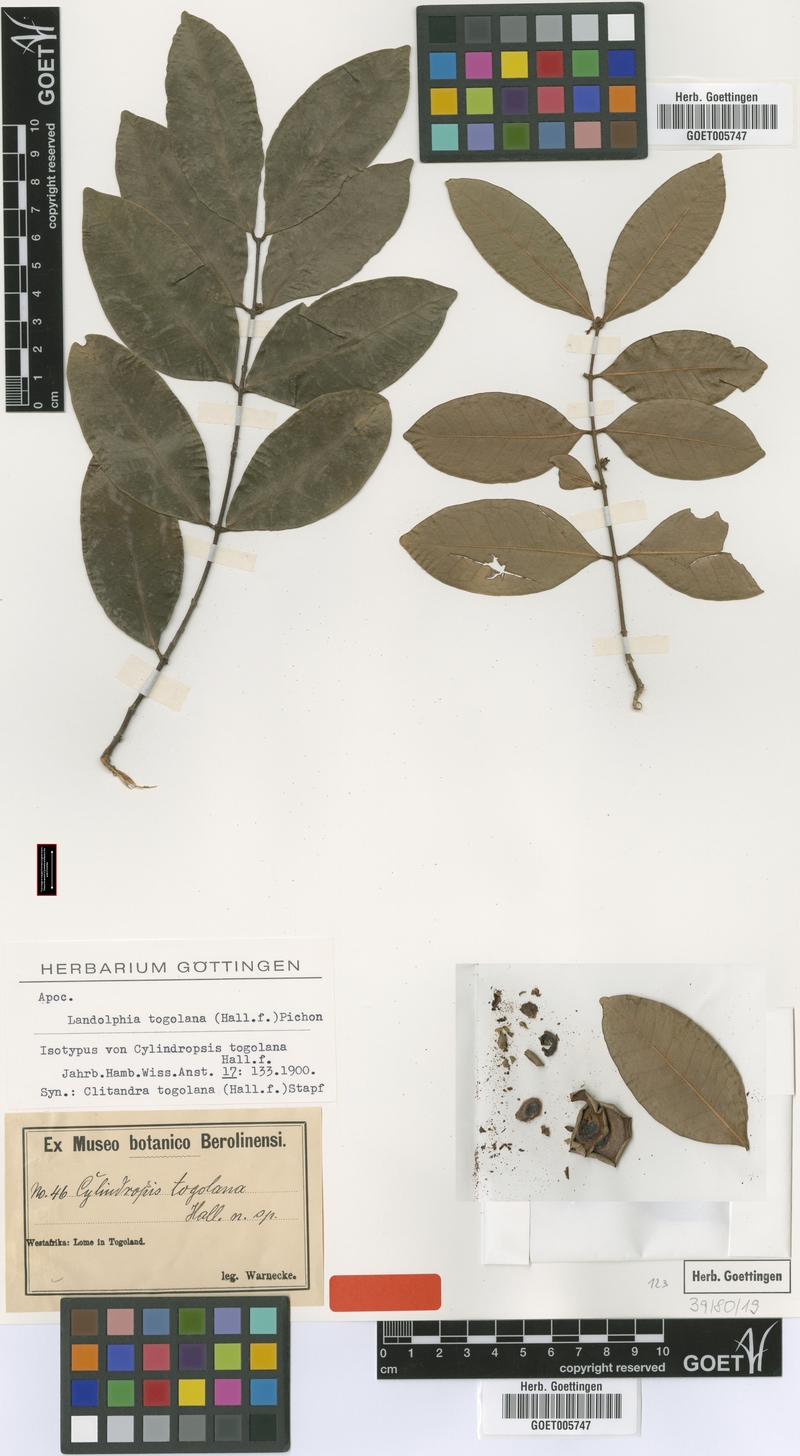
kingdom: Plantae
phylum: Tracheophyta
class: Magnoliopsida
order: Gentianales
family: Apocynaceae
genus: Landolphia
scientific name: Landolphia togolana
